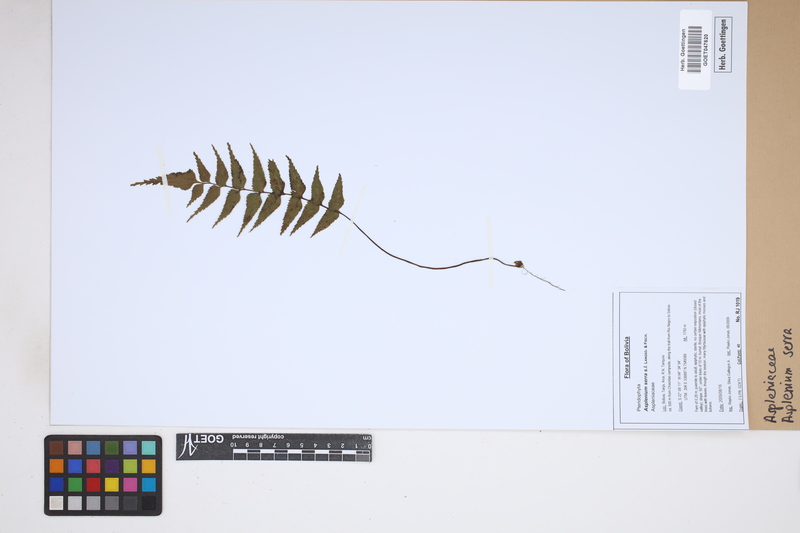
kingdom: Plantae
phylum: Tracheophyta
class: Polypodiopsida
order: Polypodiales
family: Aspleniaceae
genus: Asplenium
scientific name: Asplenium serra
